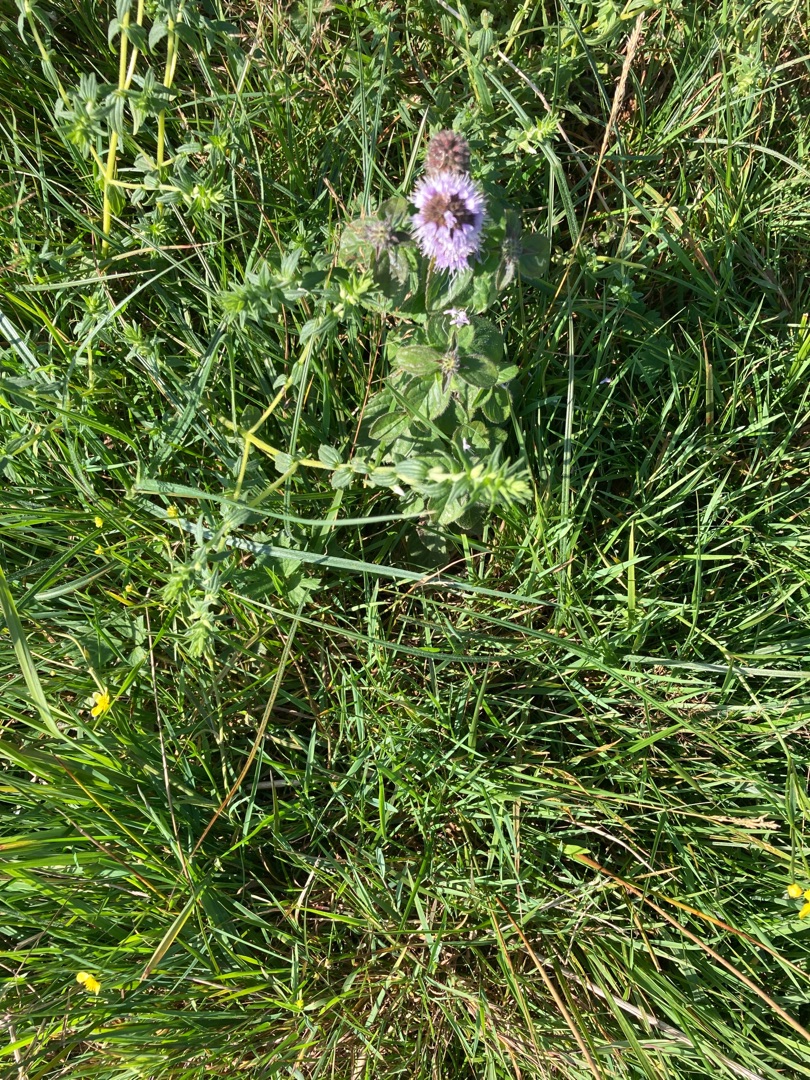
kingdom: Plantae
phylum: Tracheophyta
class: Magnoliopsida
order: Lamiales
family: Lamiaceae
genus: Mentha
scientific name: Mentha aquatica
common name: Vand-mynte
